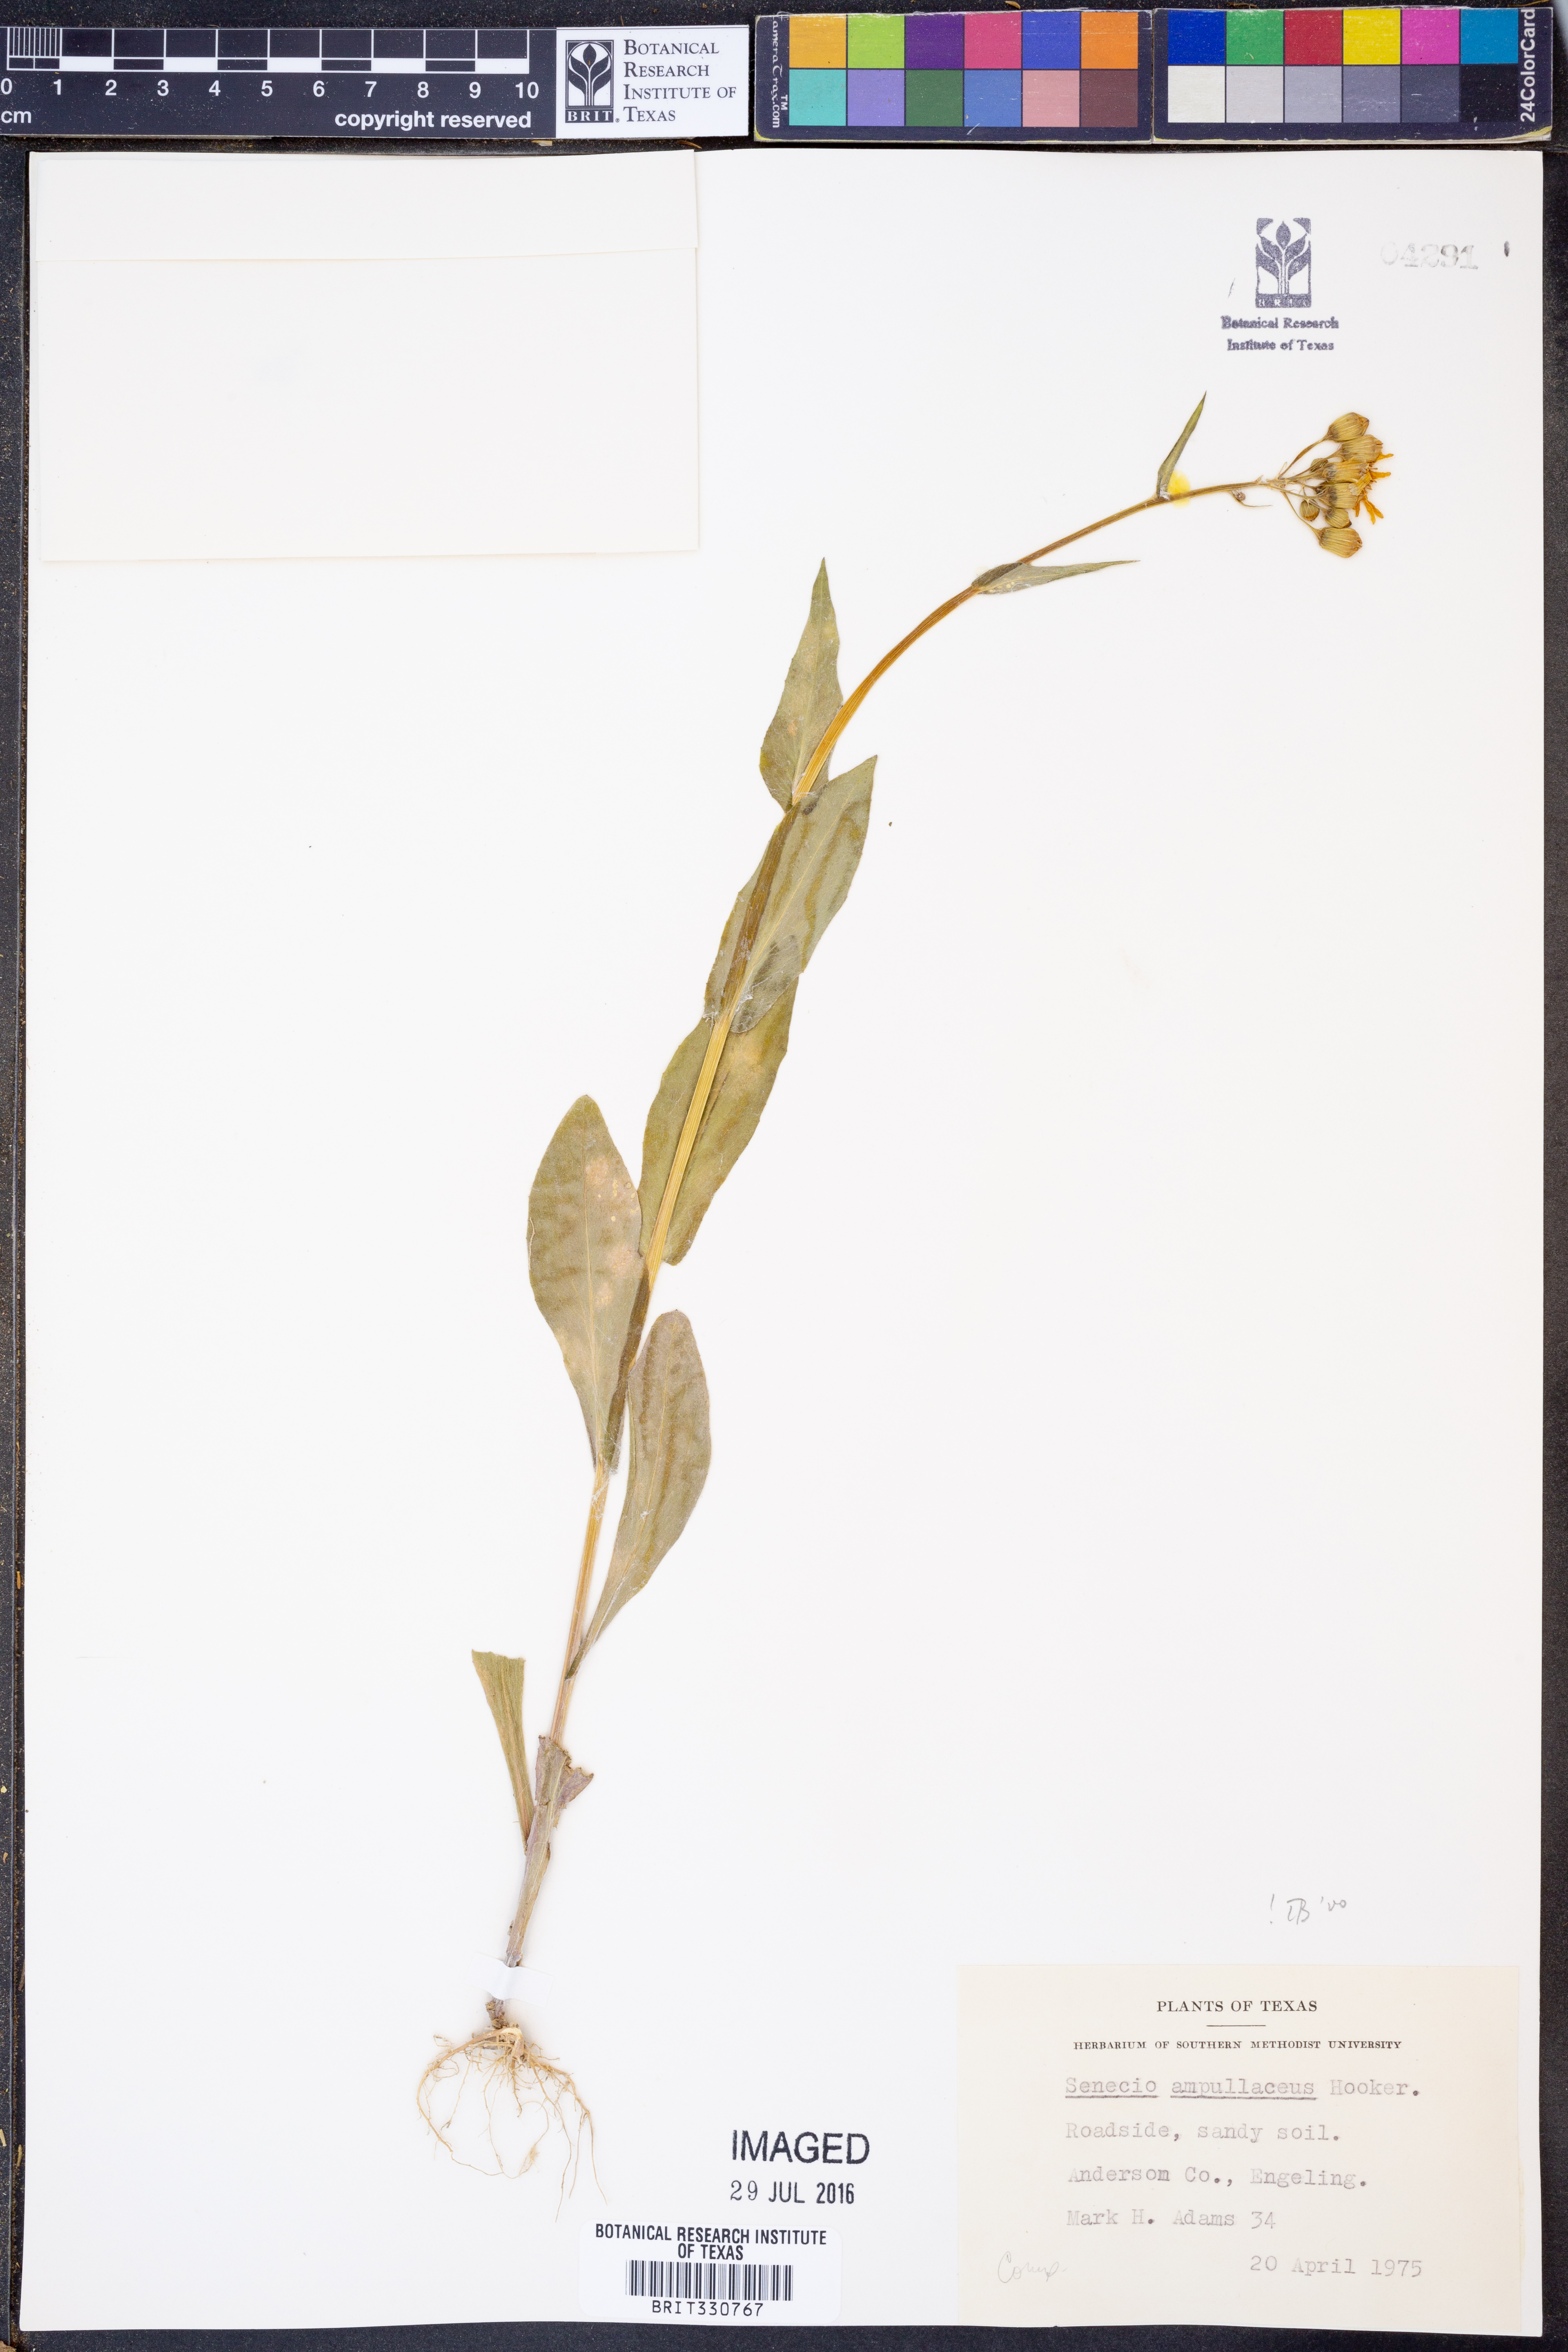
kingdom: Plantae
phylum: Tracheophyta
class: Magnoliopsida
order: Asterales
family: Asteraceae
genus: Senecio
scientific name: Senecio ampullaceus
